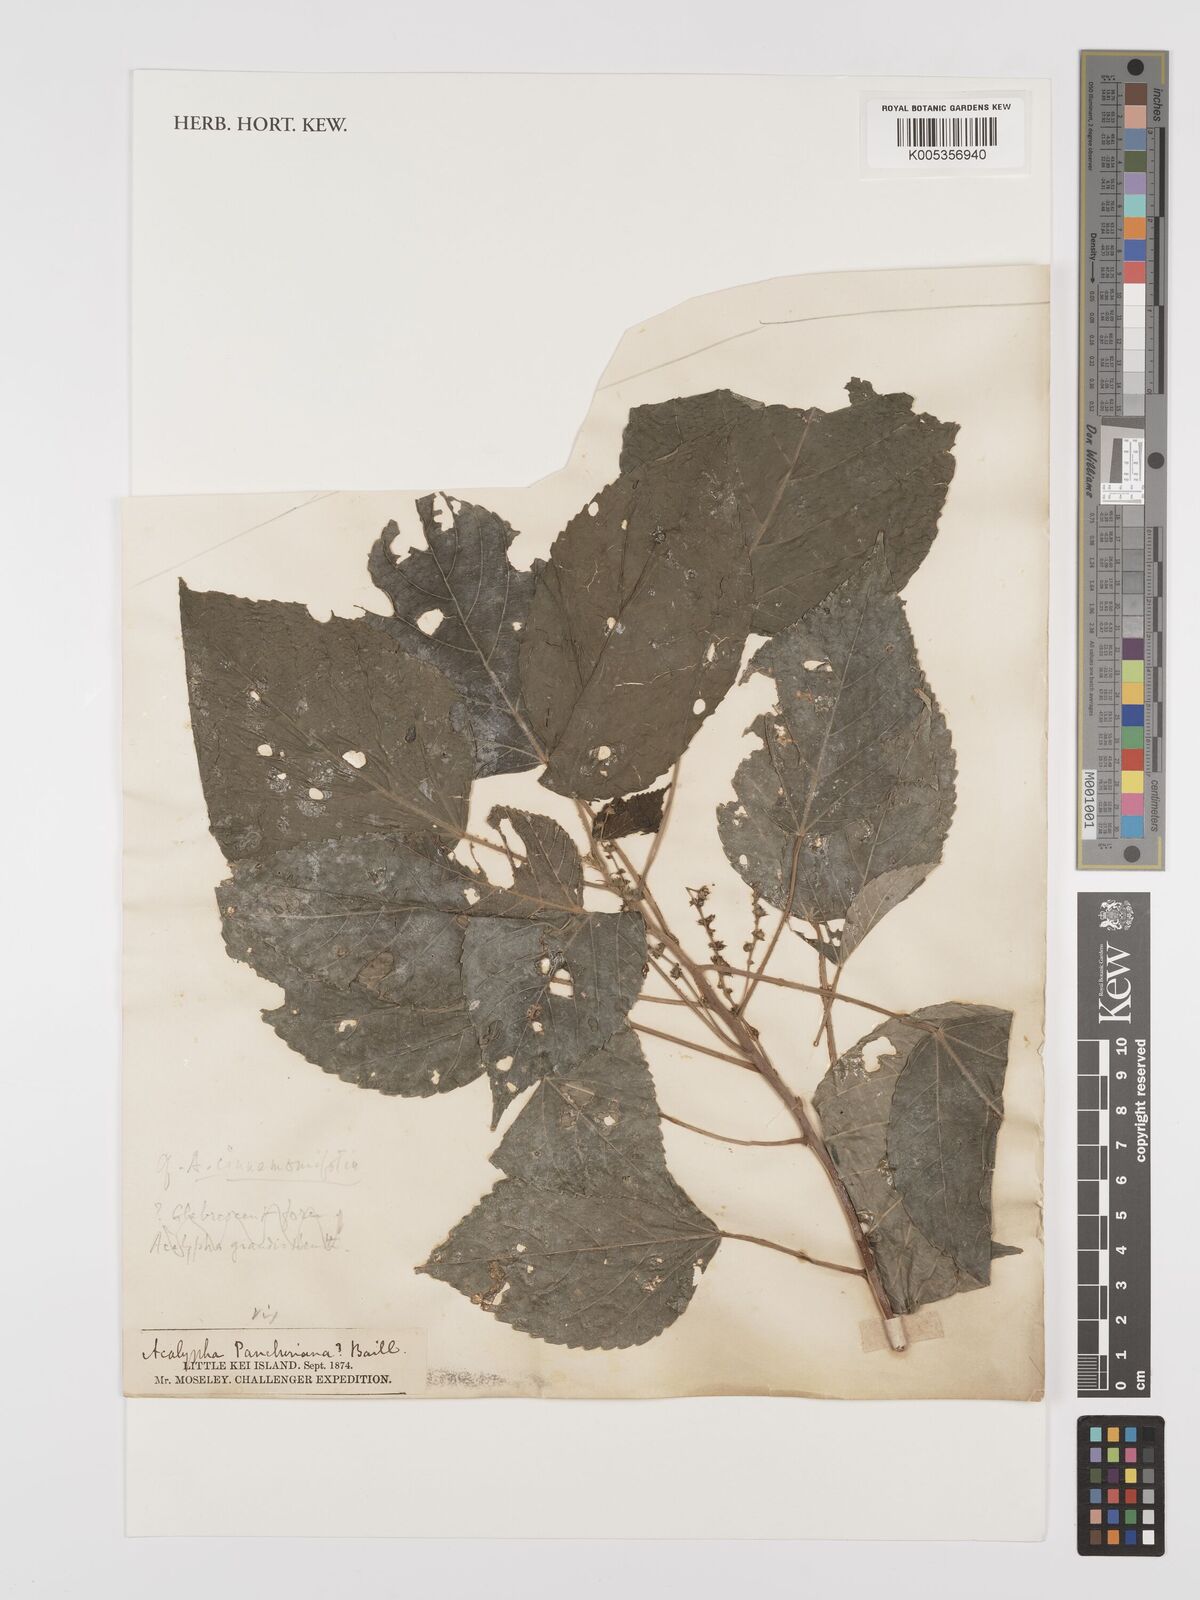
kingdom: Plantae
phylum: Tracheophyta
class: Magnoliopsida
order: Malpighiales
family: Euphorbiaceae
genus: Acalypha
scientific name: Acalypha caturus
